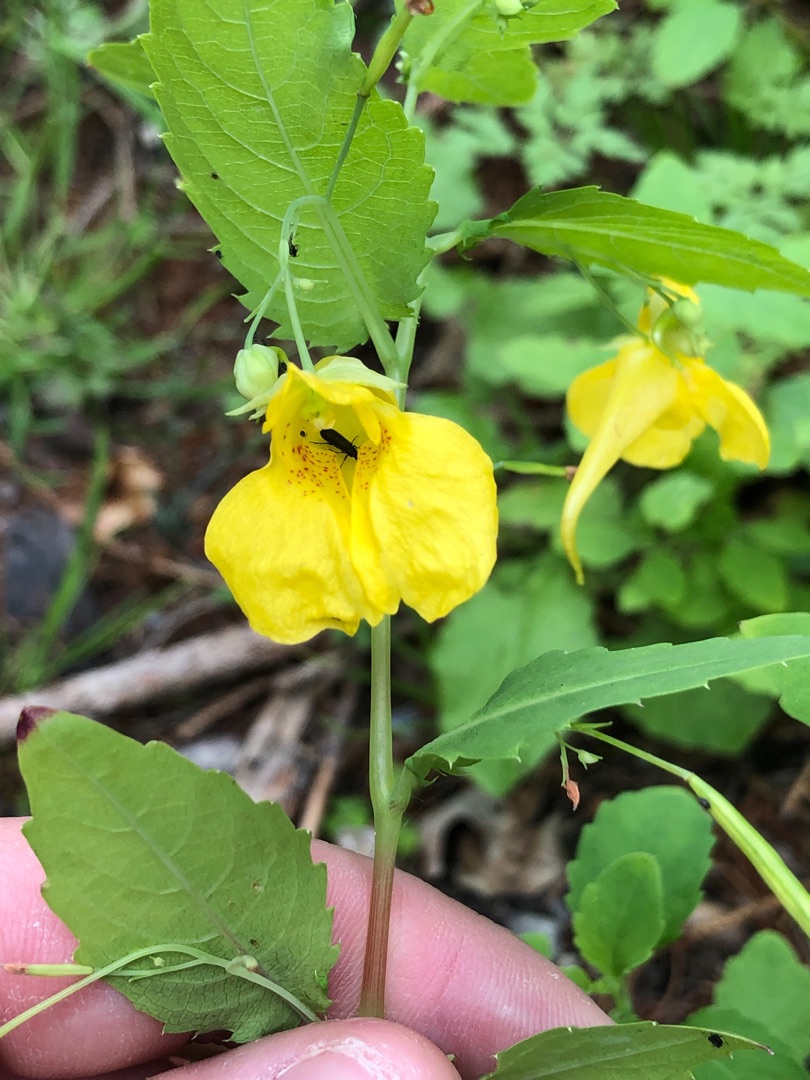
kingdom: Plantae
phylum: Tracheophyta
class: Magnoliopsida
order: Ericales
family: Balsaminaceae
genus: Impatiens
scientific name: Impatiens noli-tangere
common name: Spring-balsamin
